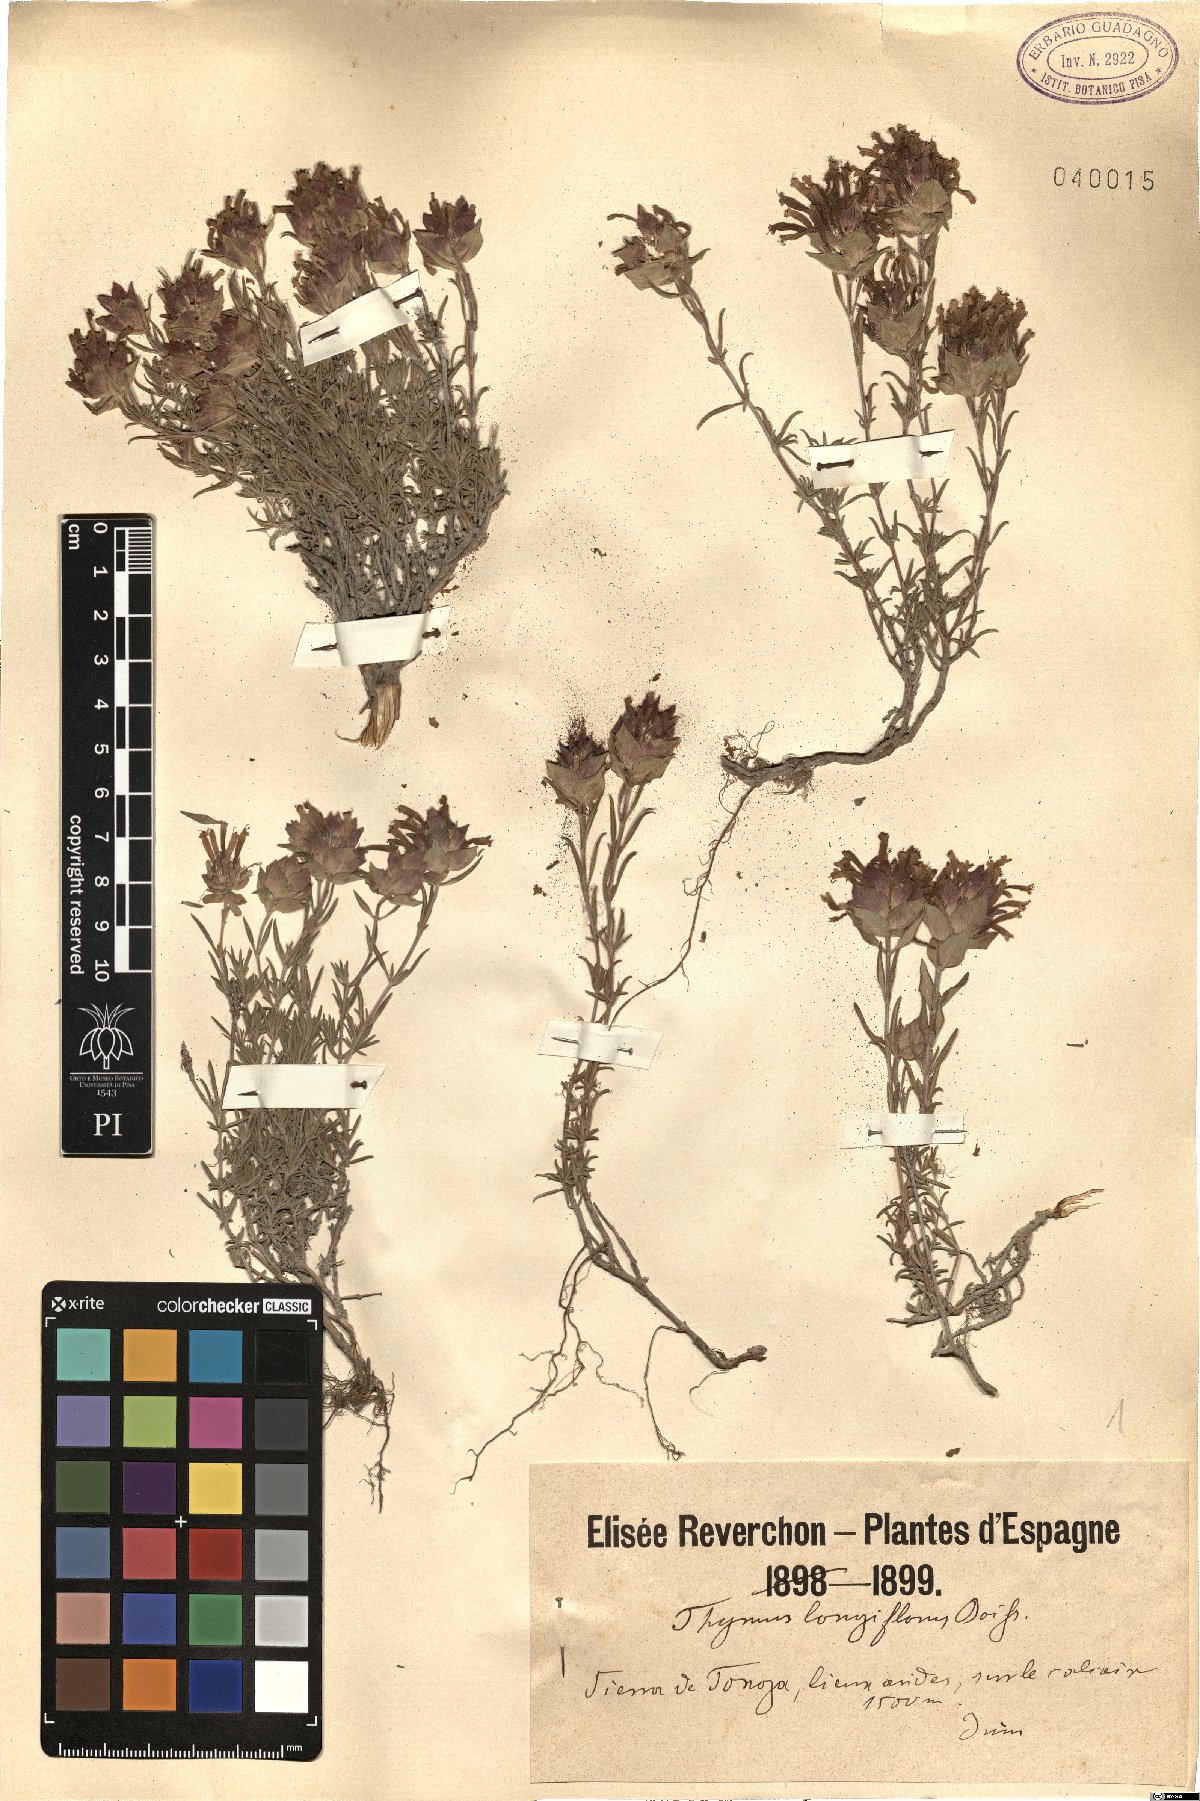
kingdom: Plantae
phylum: Tracheophyta
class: Magnoliopsida
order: Lamiales
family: Lamiaceae
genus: Thymus
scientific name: Thymus longiflorus
